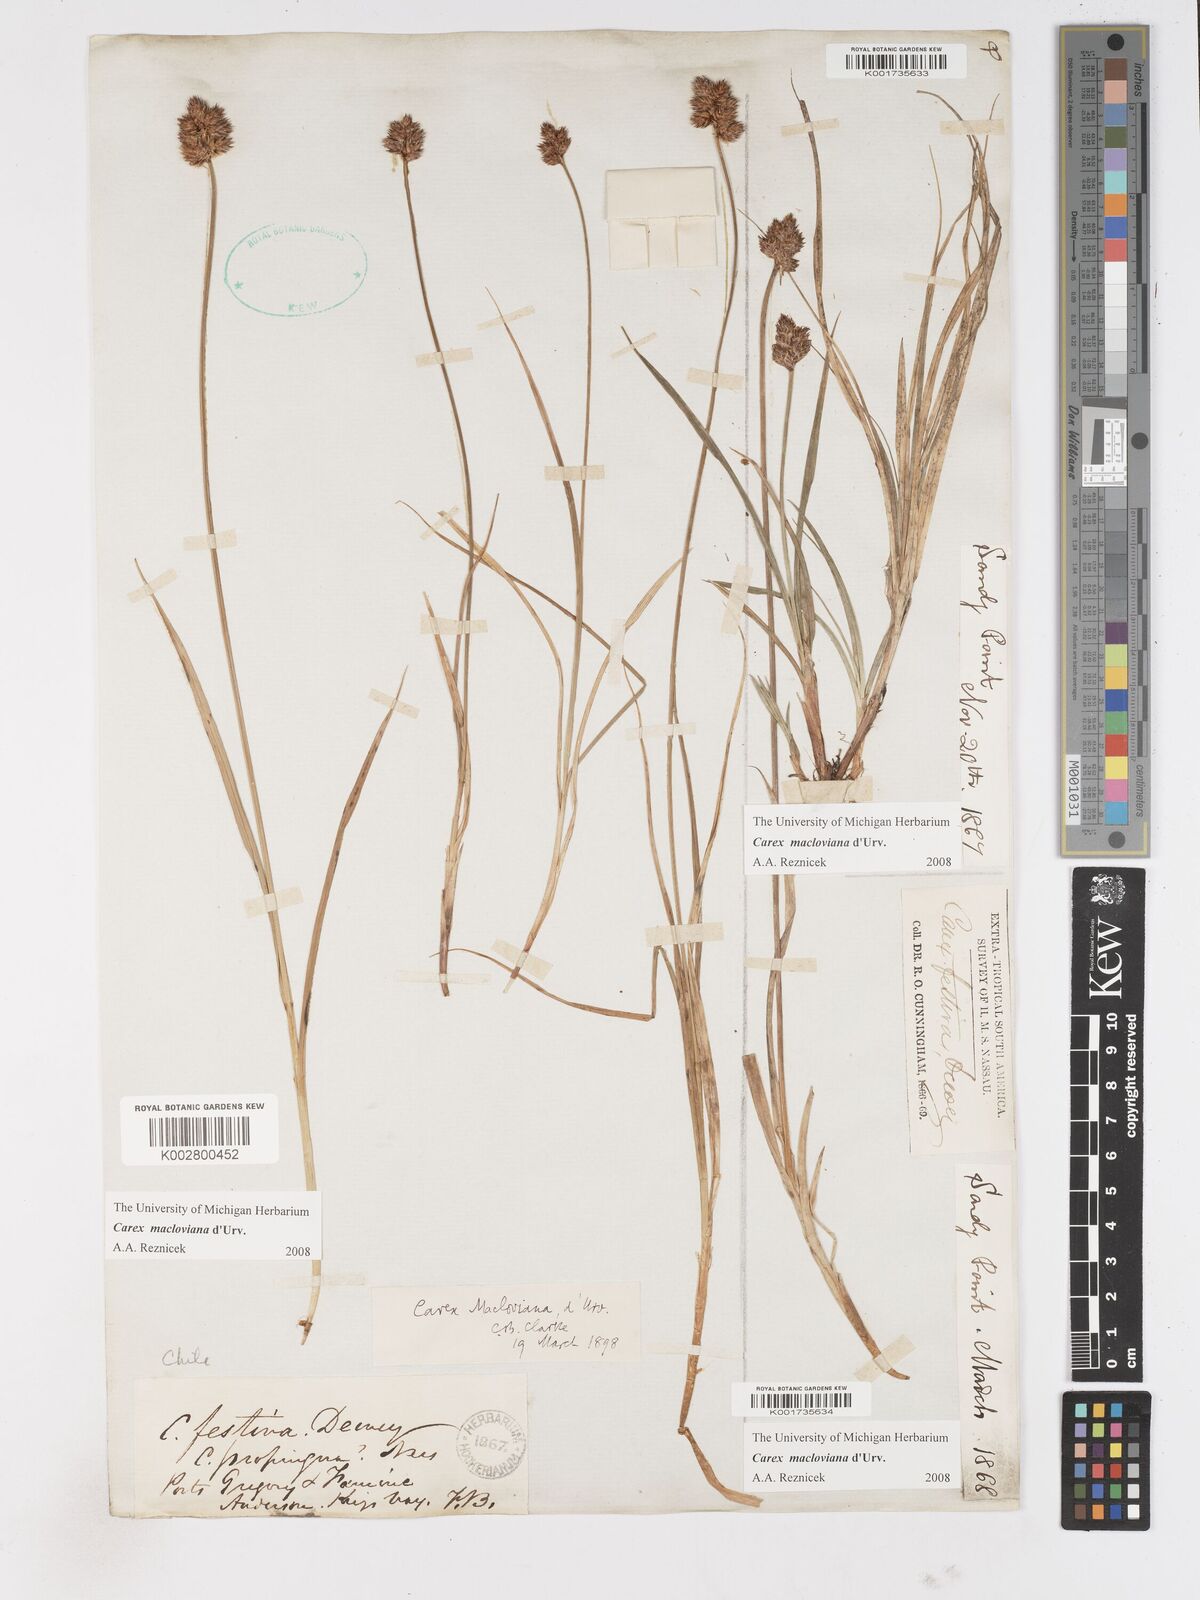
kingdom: Plantae
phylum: Tracheophyta
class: Liliopsida
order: Poales
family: Cyperaceae
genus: Carex
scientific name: Carex macloviana
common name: Falkland island sedge
